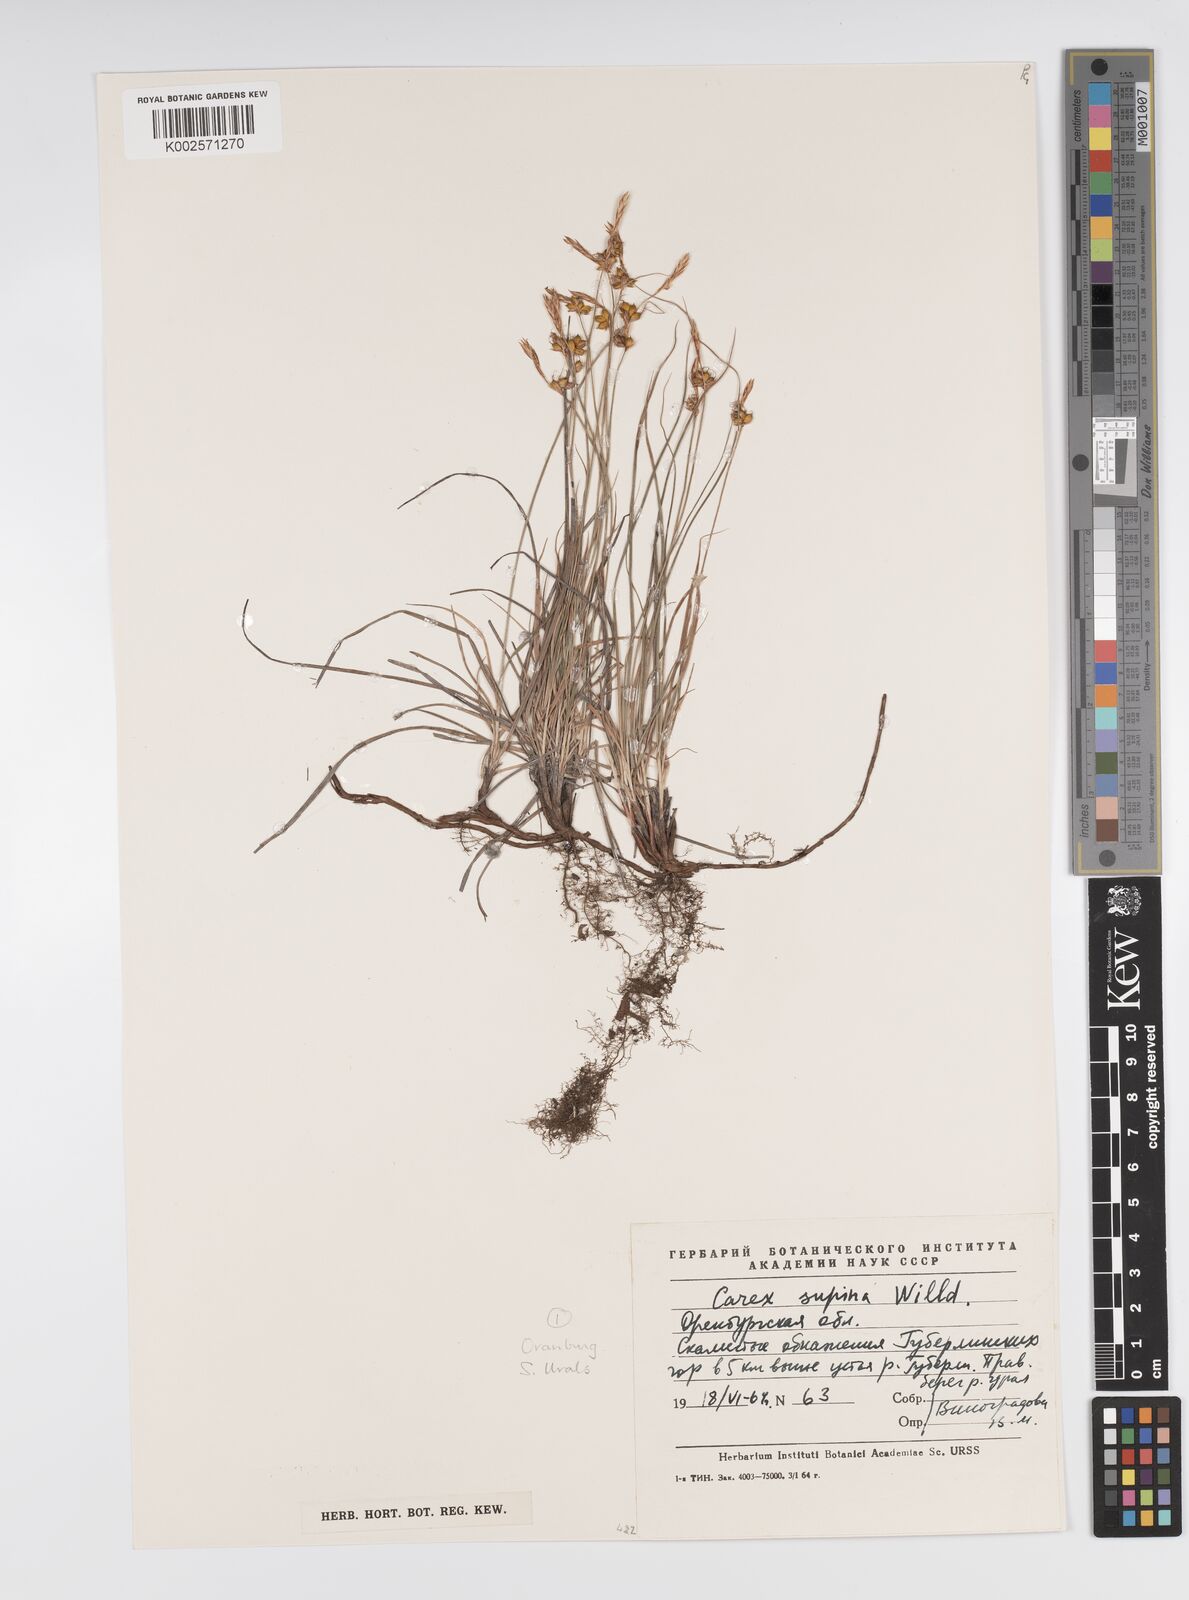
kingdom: Plantae
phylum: Tracheophyta
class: Liliopsida
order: Poales
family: Cyperaceae
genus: Carex
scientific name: Carex supina
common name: Lying-back sedge
